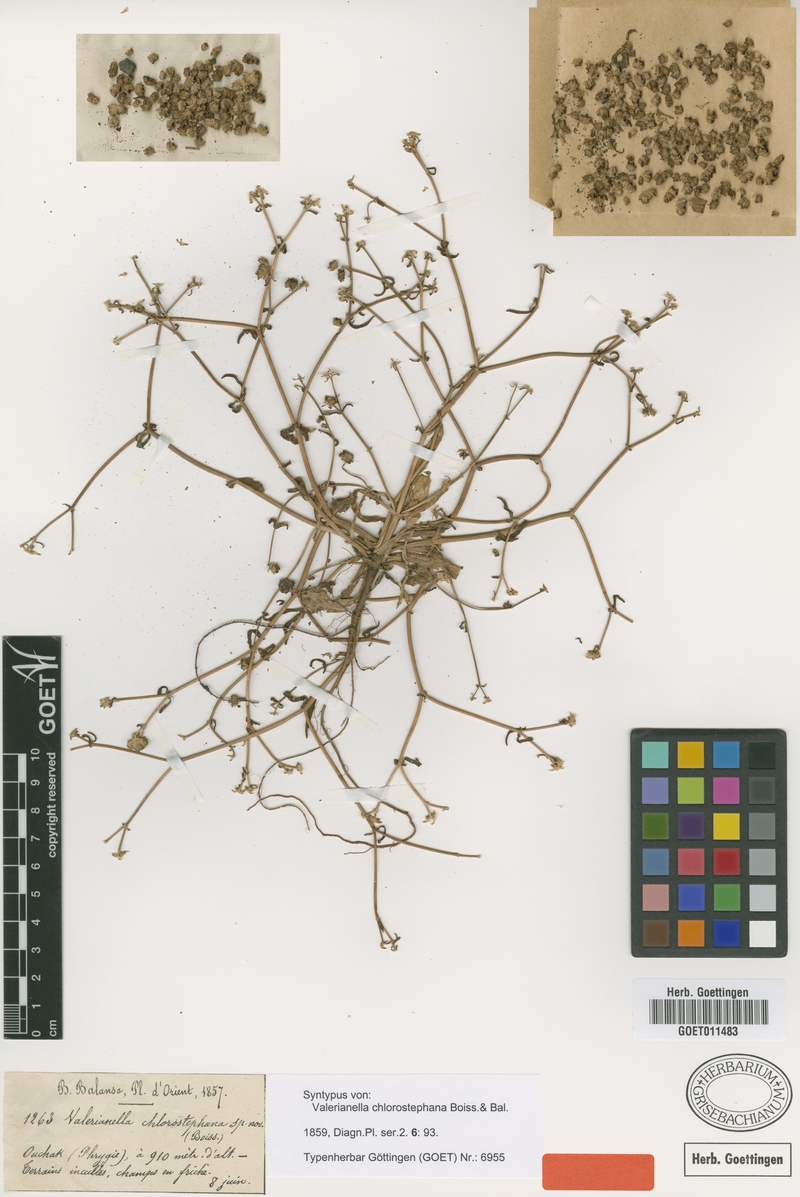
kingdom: Plantae
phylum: Tracheophyta
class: Magnoliopsida
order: Dipsacales
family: Caprifoliaceae
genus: Valerianella
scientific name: Valerianella chlorostephana
